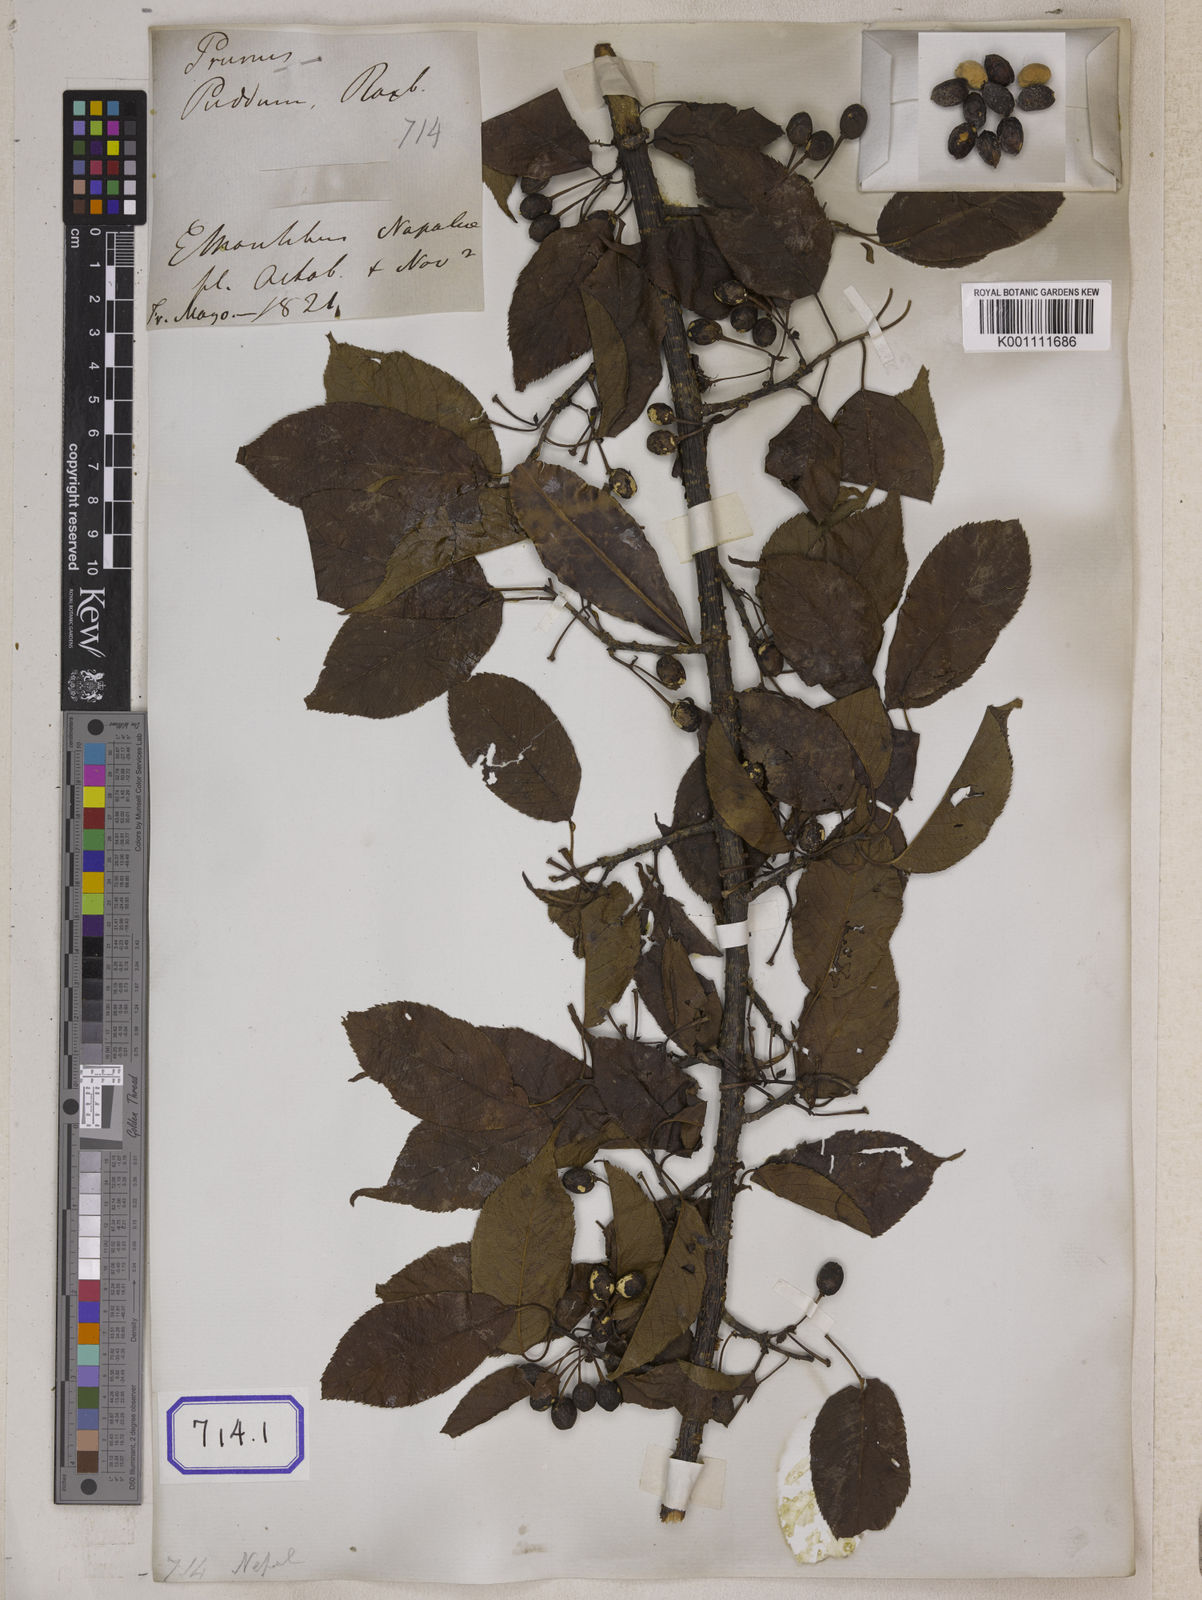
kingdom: Plantae
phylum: Tracheophyta
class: Magnoliopsida
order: Rosales
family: Rosaceae
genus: Prunus
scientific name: Prunus Cerasus myrtifolia
